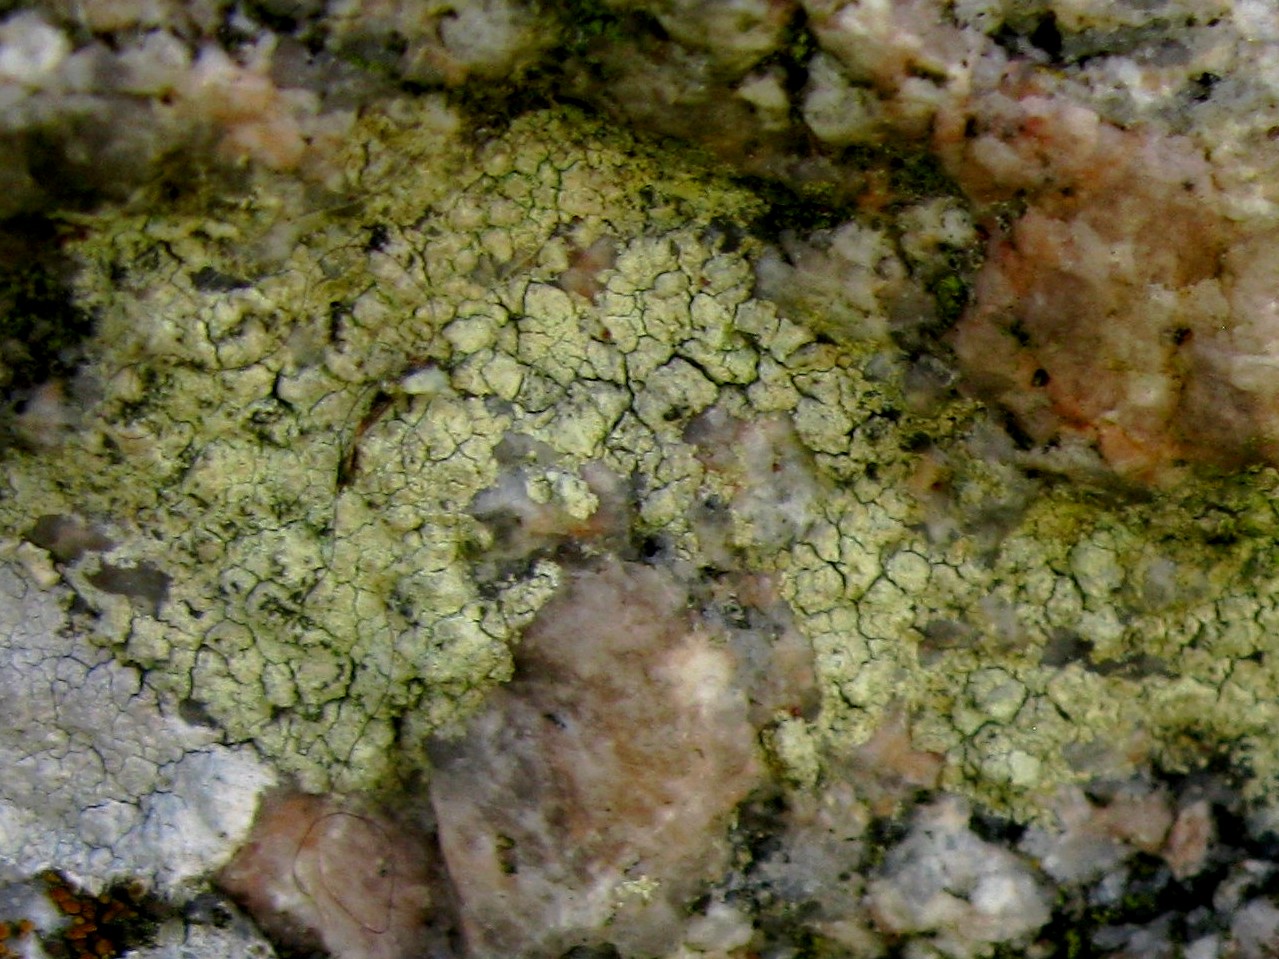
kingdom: Fungi
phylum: Ascomycota
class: Lecanoromycetes
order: Lecanorales
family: Lecanoraceae
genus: Glaucomaria
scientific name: Glaucomaria sulphurea
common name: svovlgul kantskivelav
